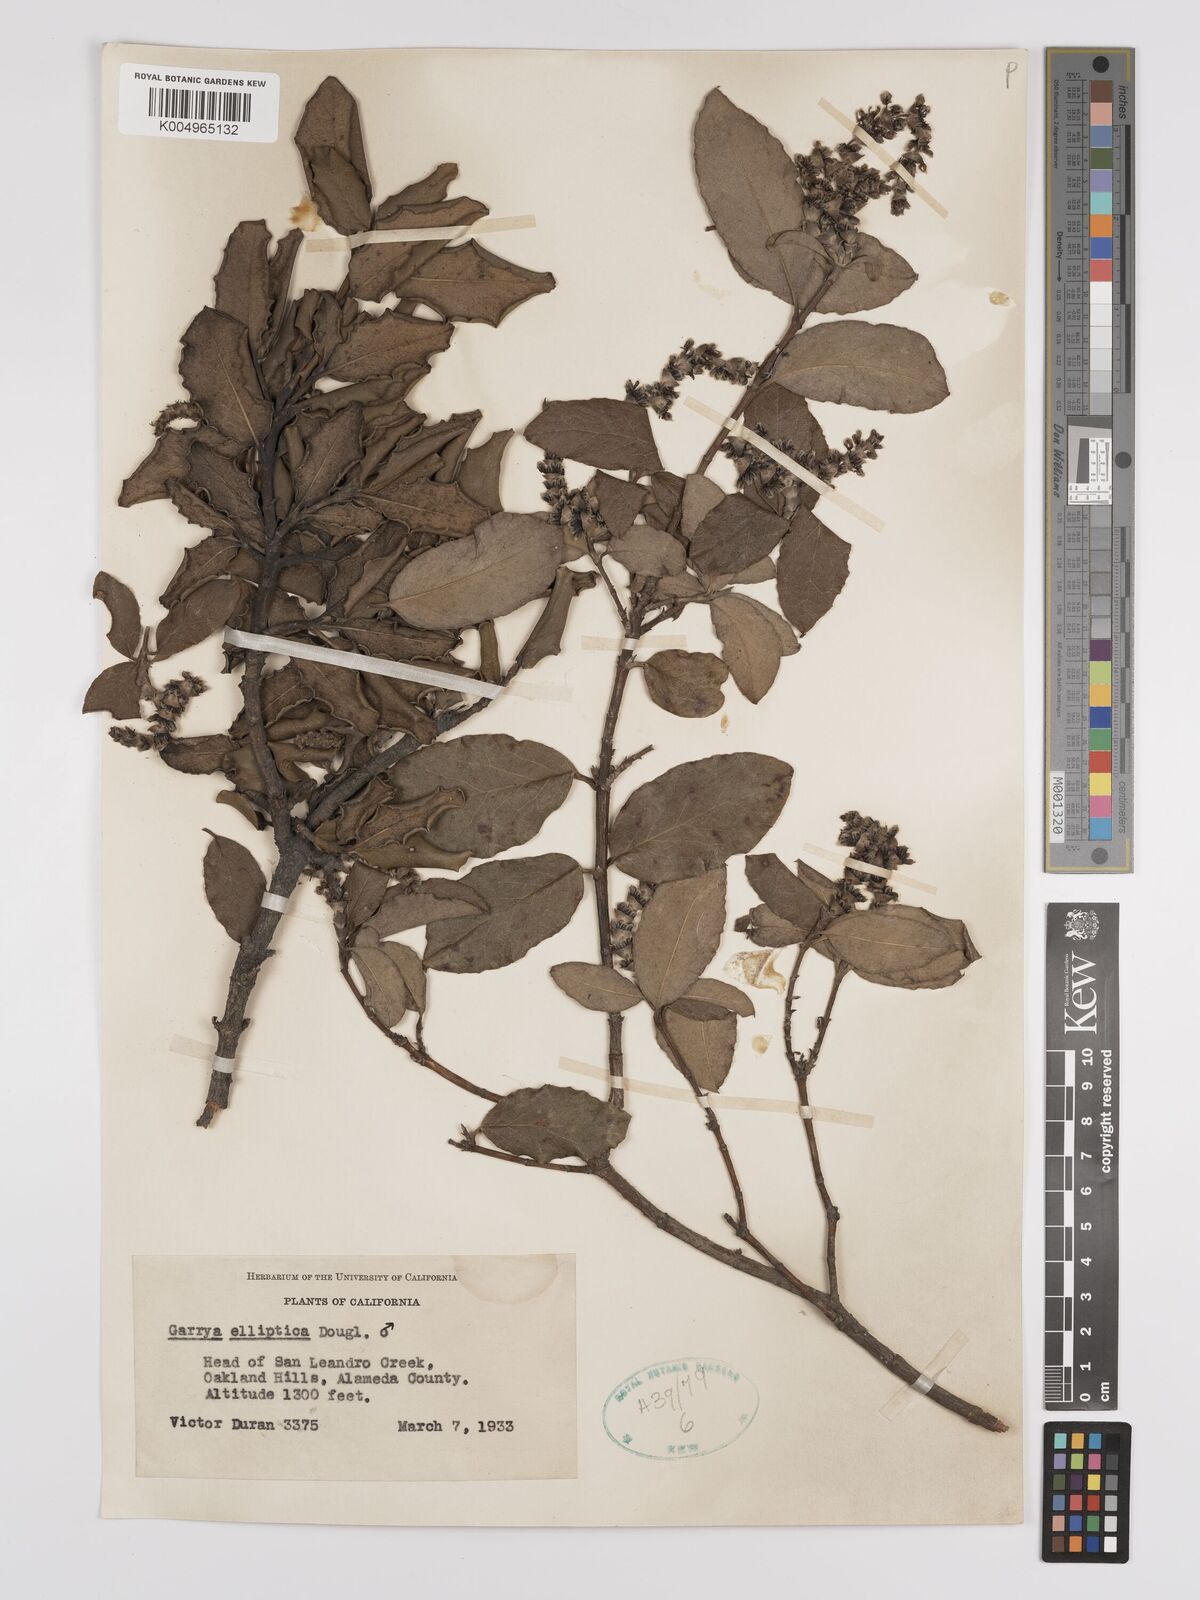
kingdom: Plantae
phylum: Tracheophyta
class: Magnoliopsida
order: Garryales
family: Garryaceae
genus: Garrya
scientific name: Garrya elliptica
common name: Silk-tassel
